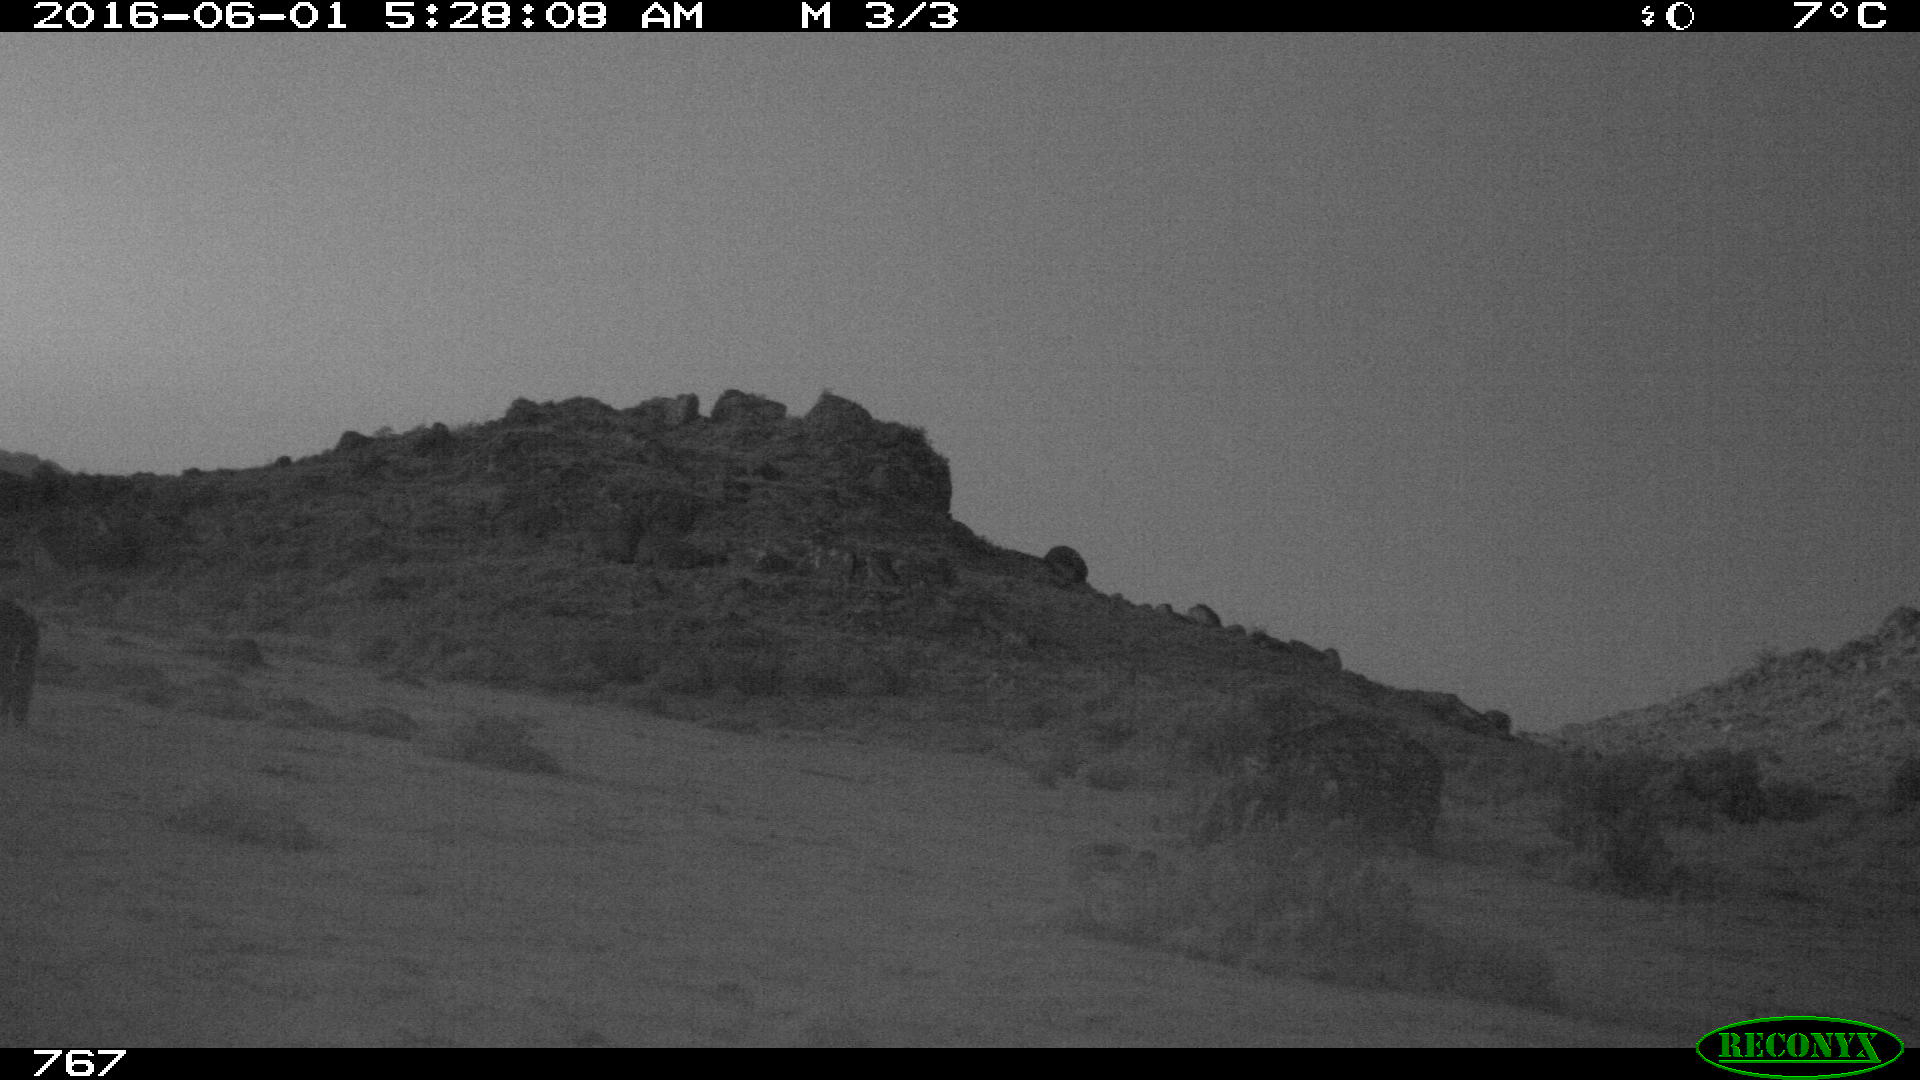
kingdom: Animalia
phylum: Chordata
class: Mammalia
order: Perissodactyla
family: Equidae
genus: Equus
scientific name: Equus caballus
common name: Horse
